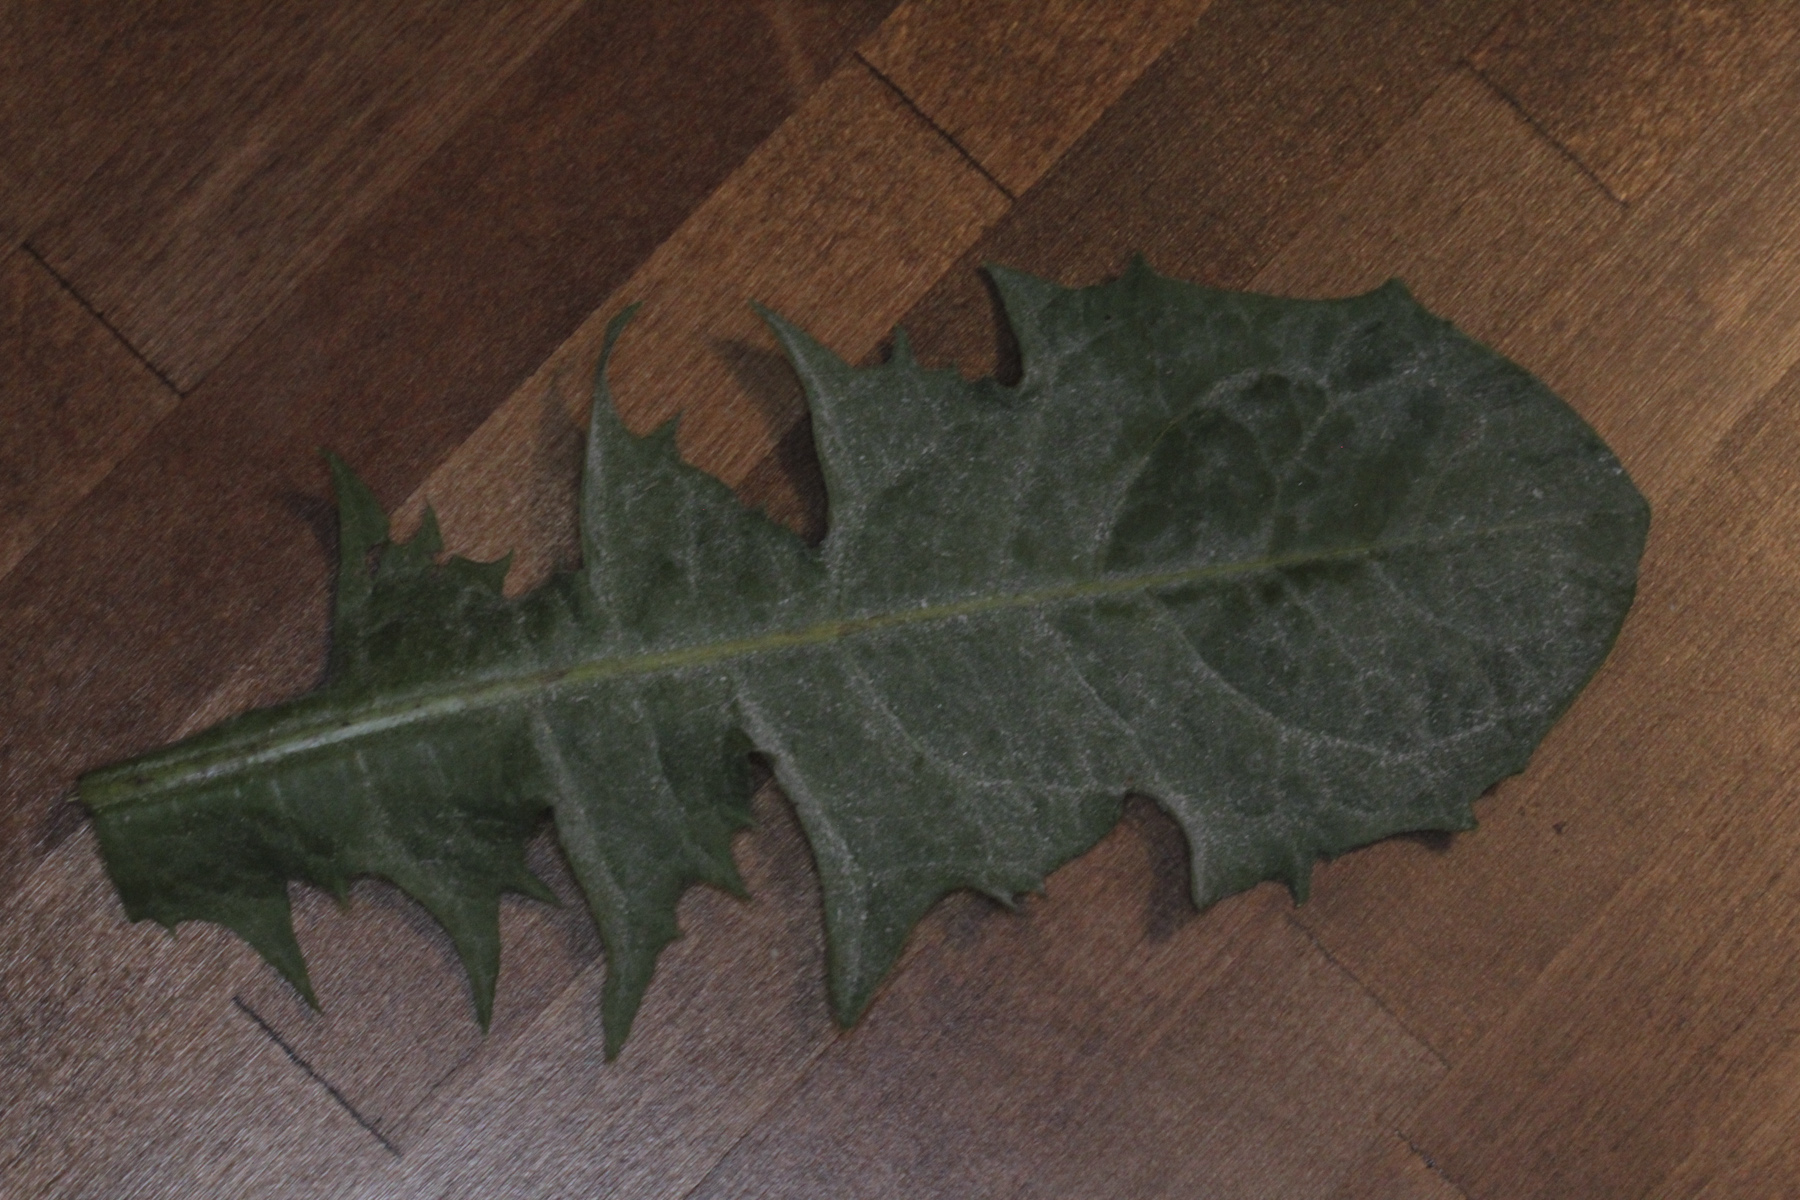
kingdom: Fungi
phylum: Ascomycota
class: Leotiomycetes
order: Helotiales
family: Erysiphaceae
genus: Podosphaera
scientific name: Podosphaera erigerontis-canadensis
